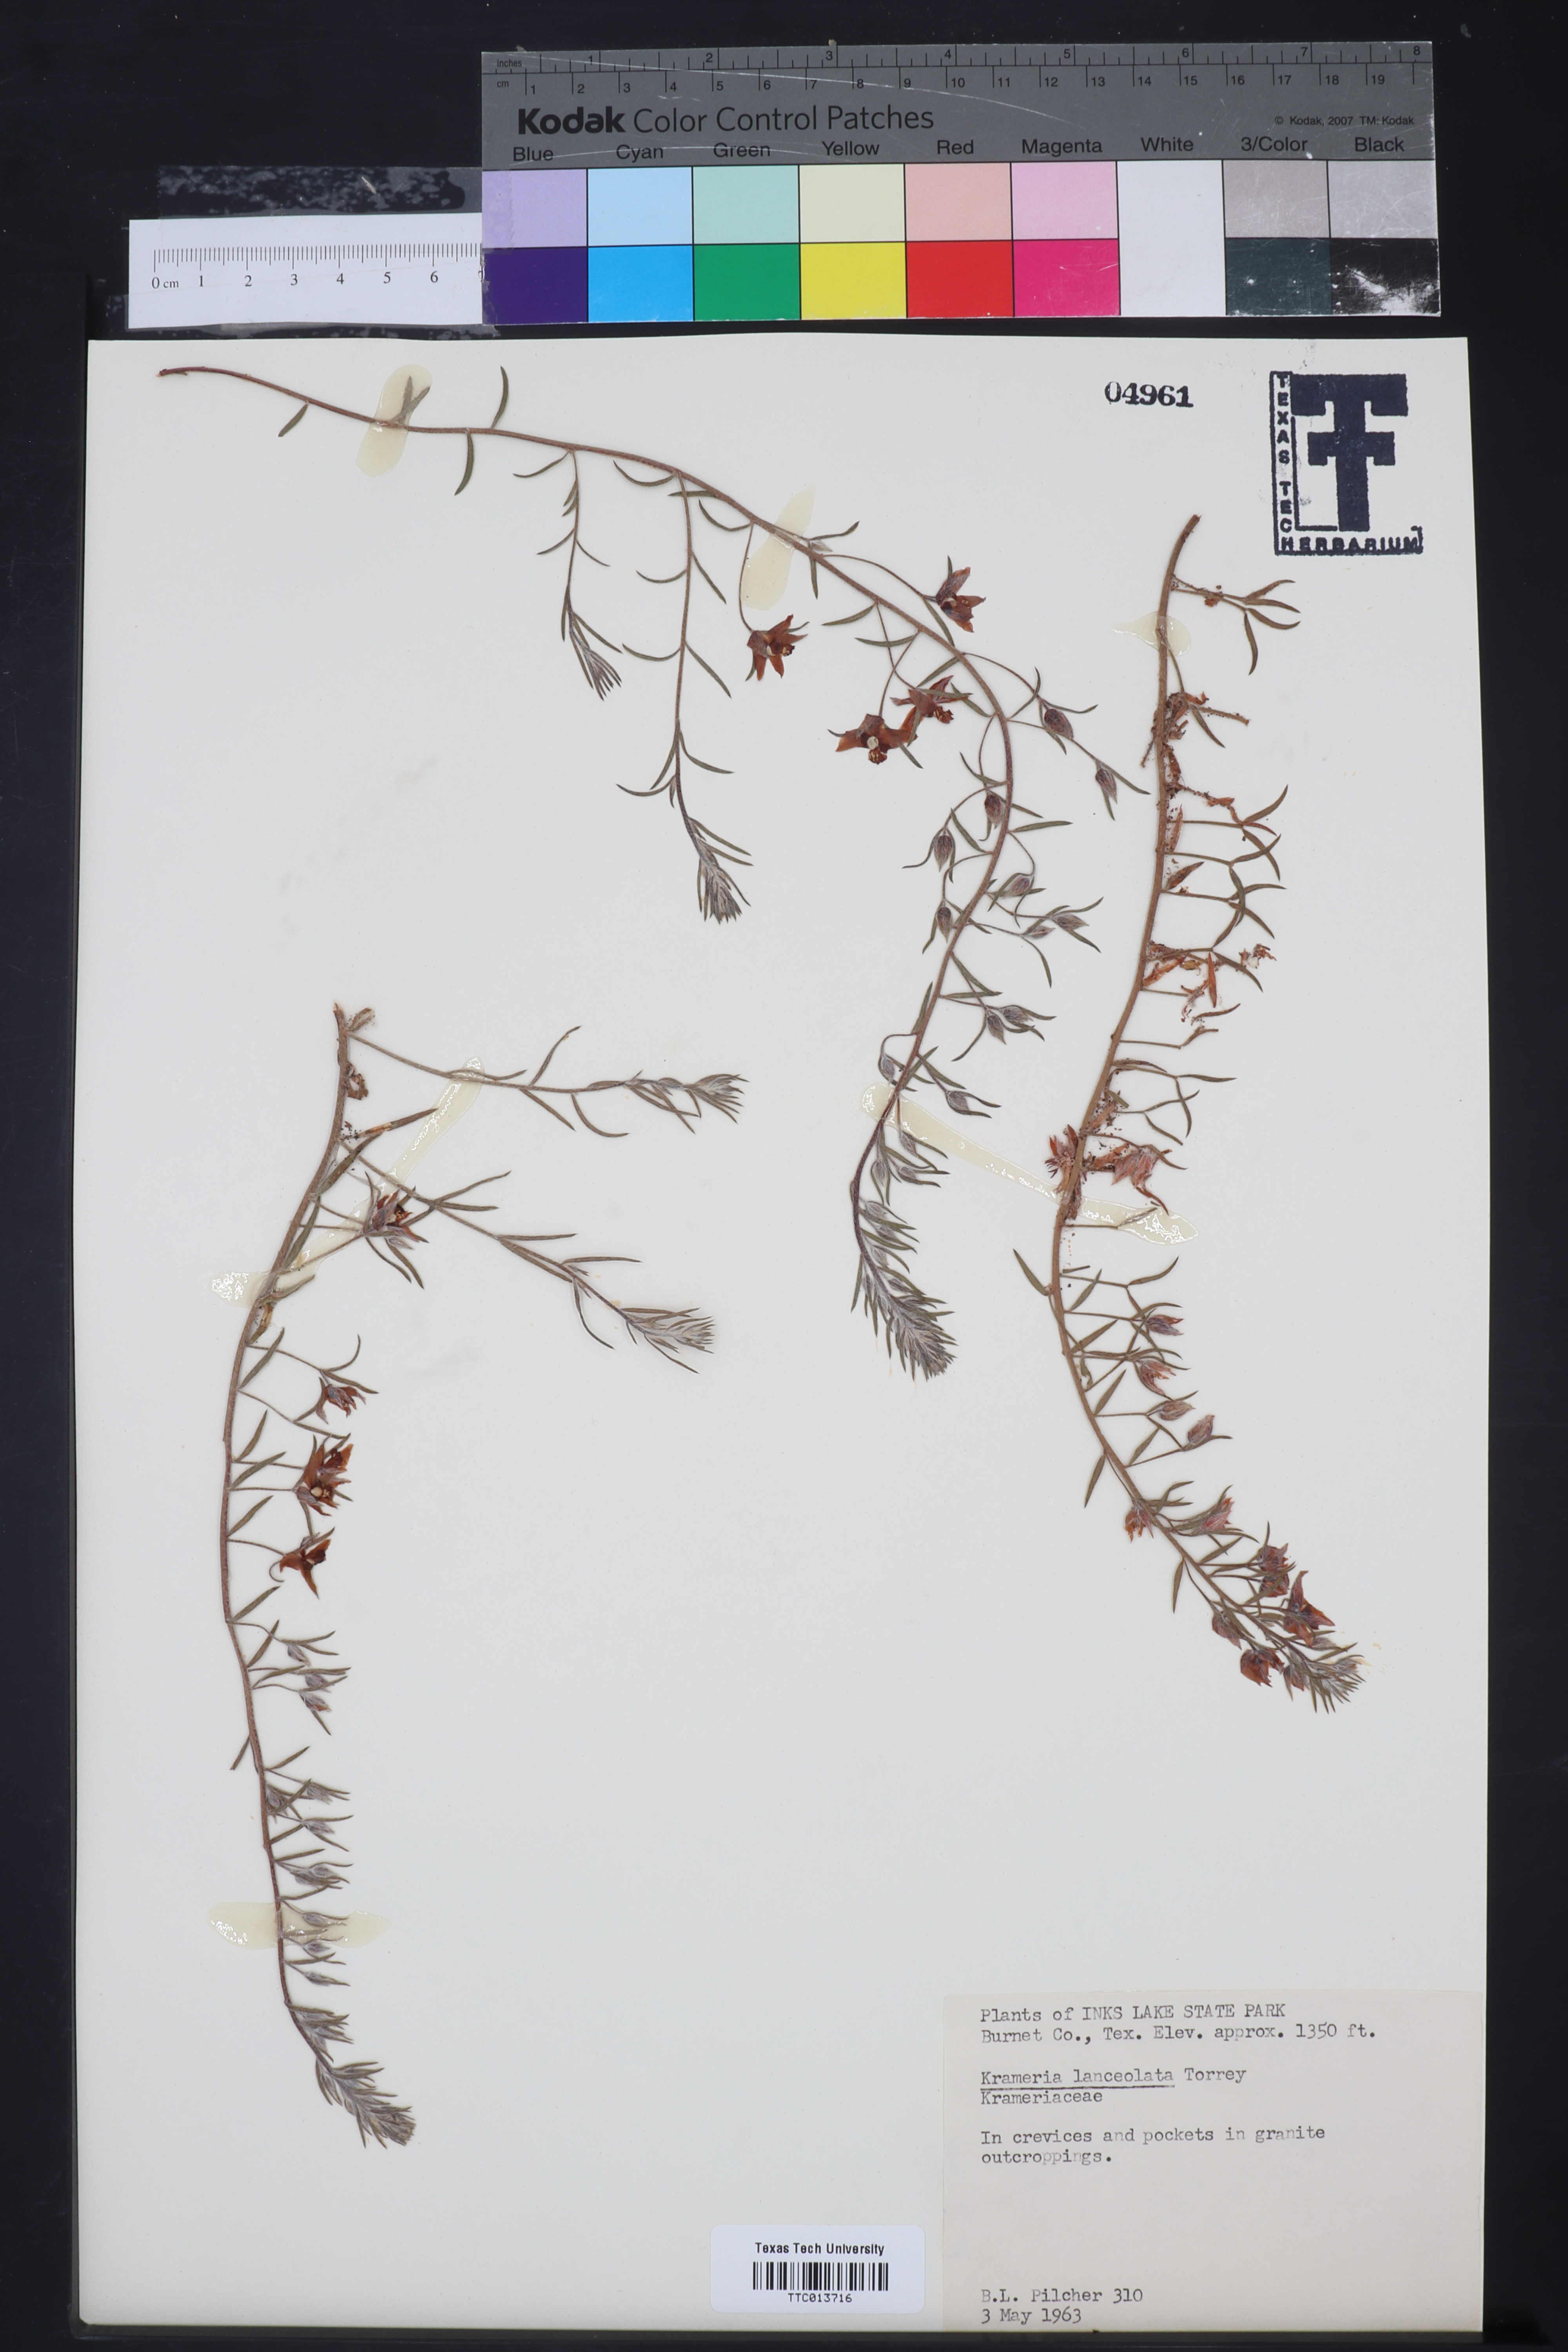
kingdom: Plantae
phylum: Tracheophyta
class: Magnoliopsida
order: Zygophyllales
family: Krameriaceae
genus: Krameria
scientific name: Krameria lanceolata
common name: Ratany
